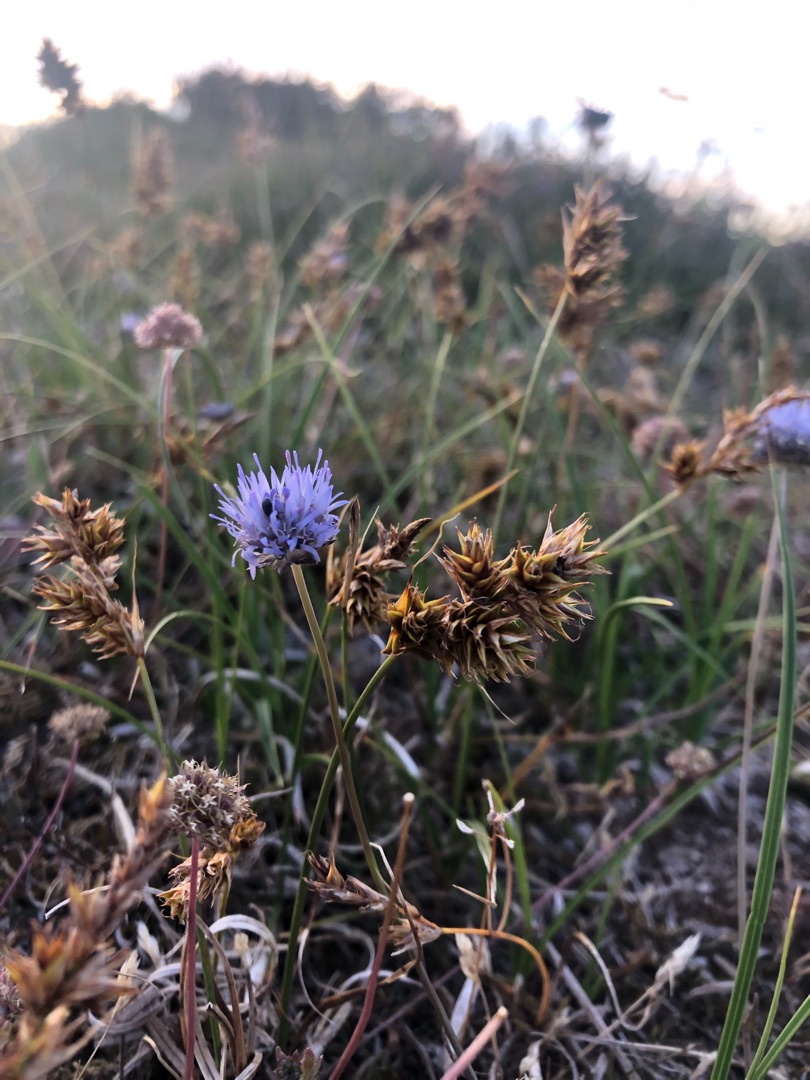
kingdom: Plantae
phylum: Tracheophyta
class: Magnoliopsida
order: Asterales
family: Campanulaceae
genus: Jasione
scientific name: Jasione montana
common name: Blåmunke
